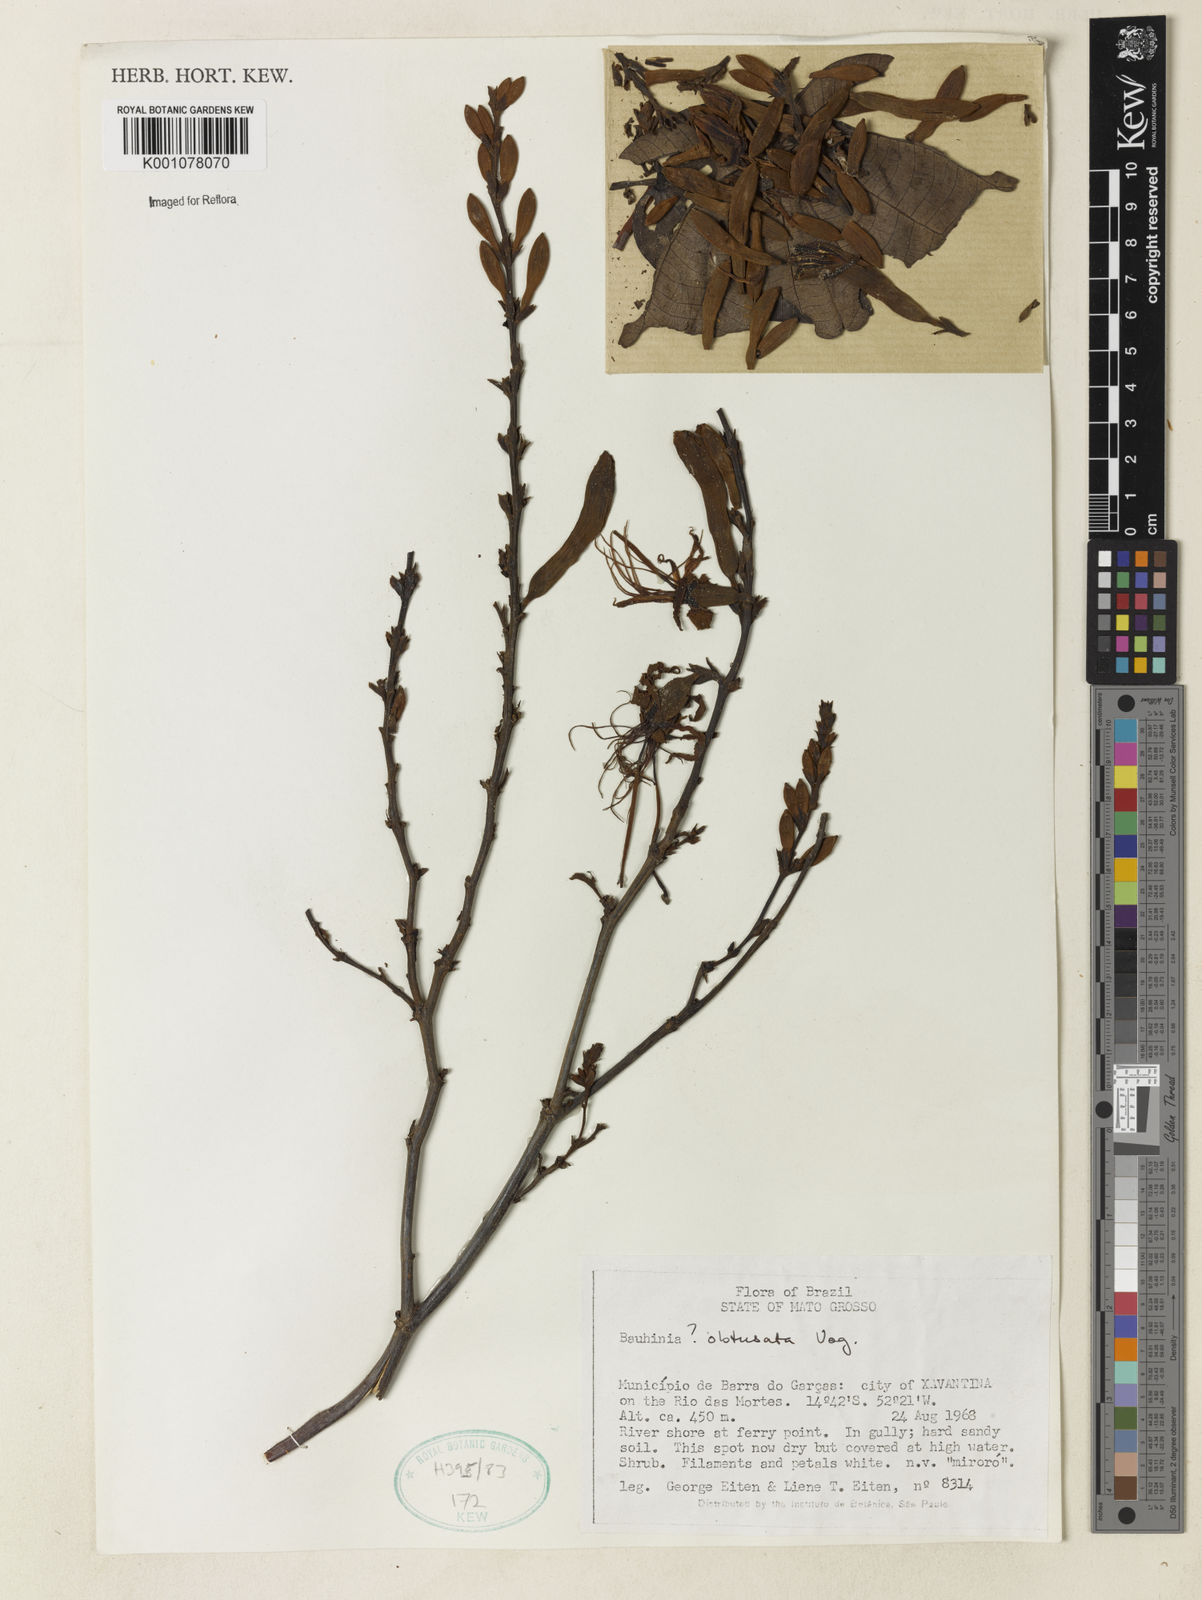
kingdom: Plantae
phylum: Tracheophyta
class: Magnoliopsida
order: Fabales
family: Fabaceae
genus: Bauhinia
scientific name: Bauhinia longifolia
